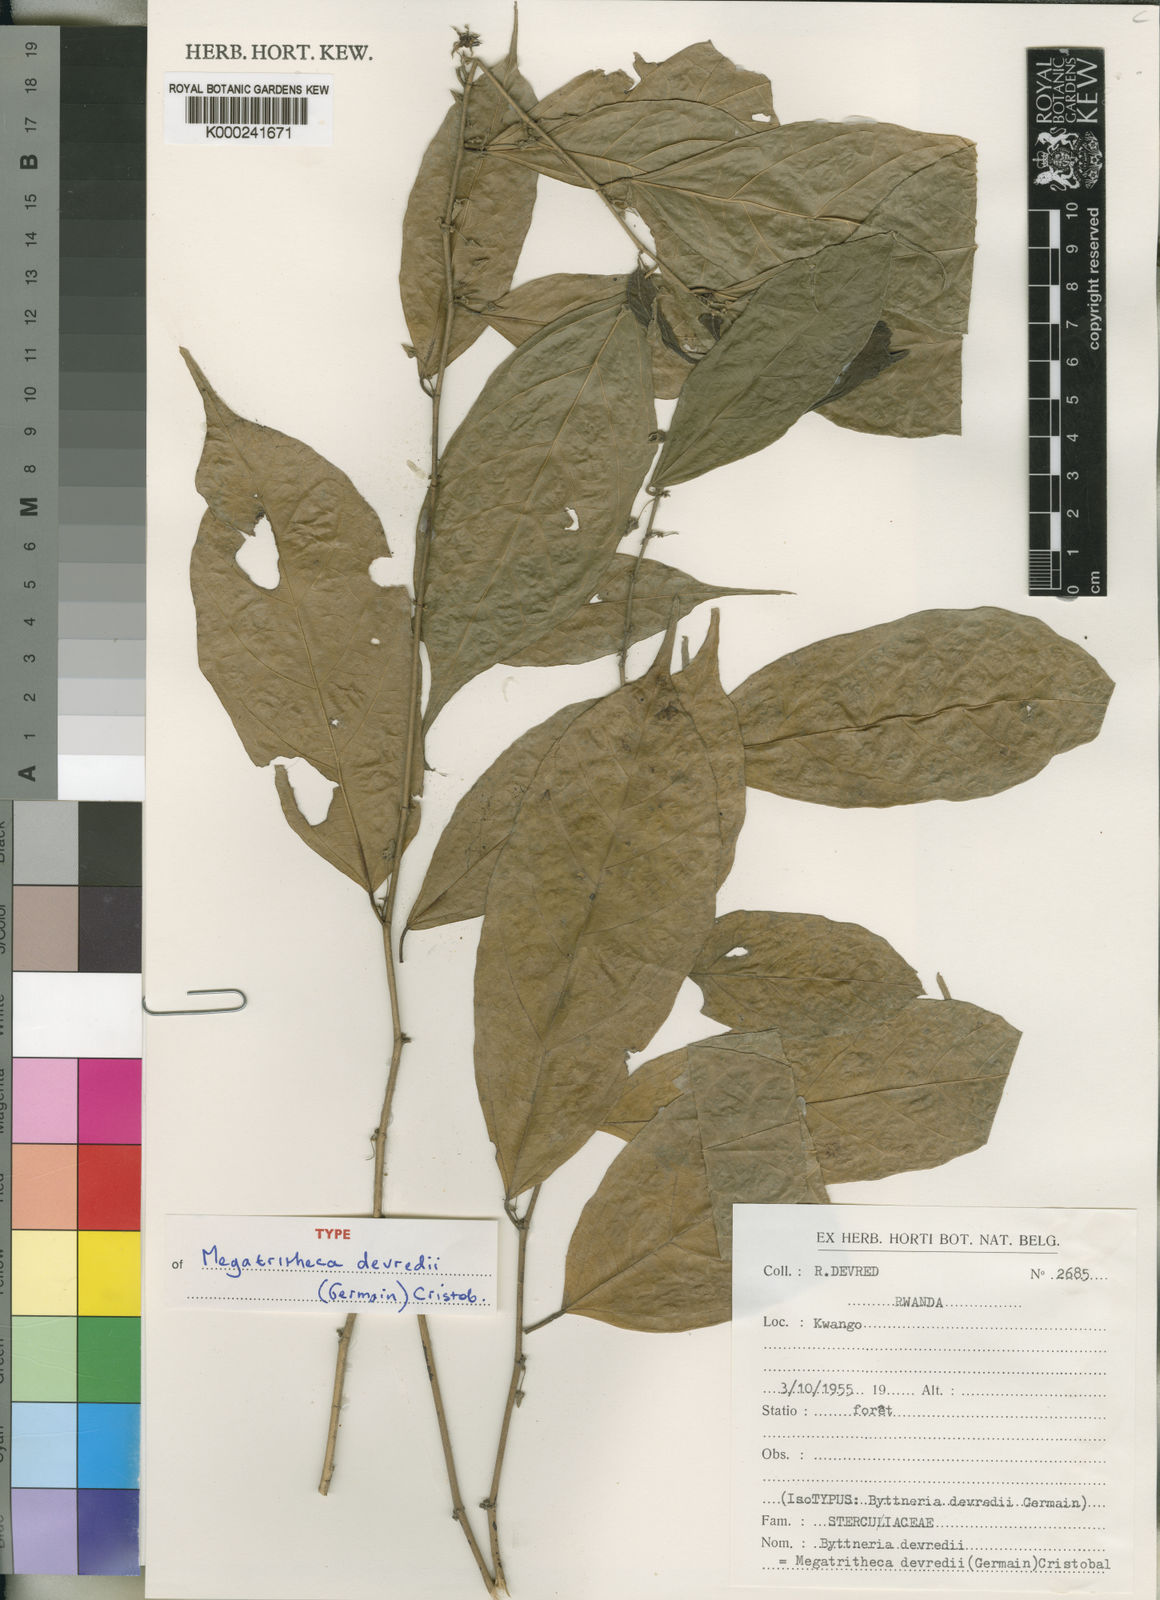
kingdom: Plantae
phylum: Tracheophyta
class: Magnoliopsida
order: Malvales
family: Malvaceae
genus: Megatritheca
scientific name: Megatritheca
